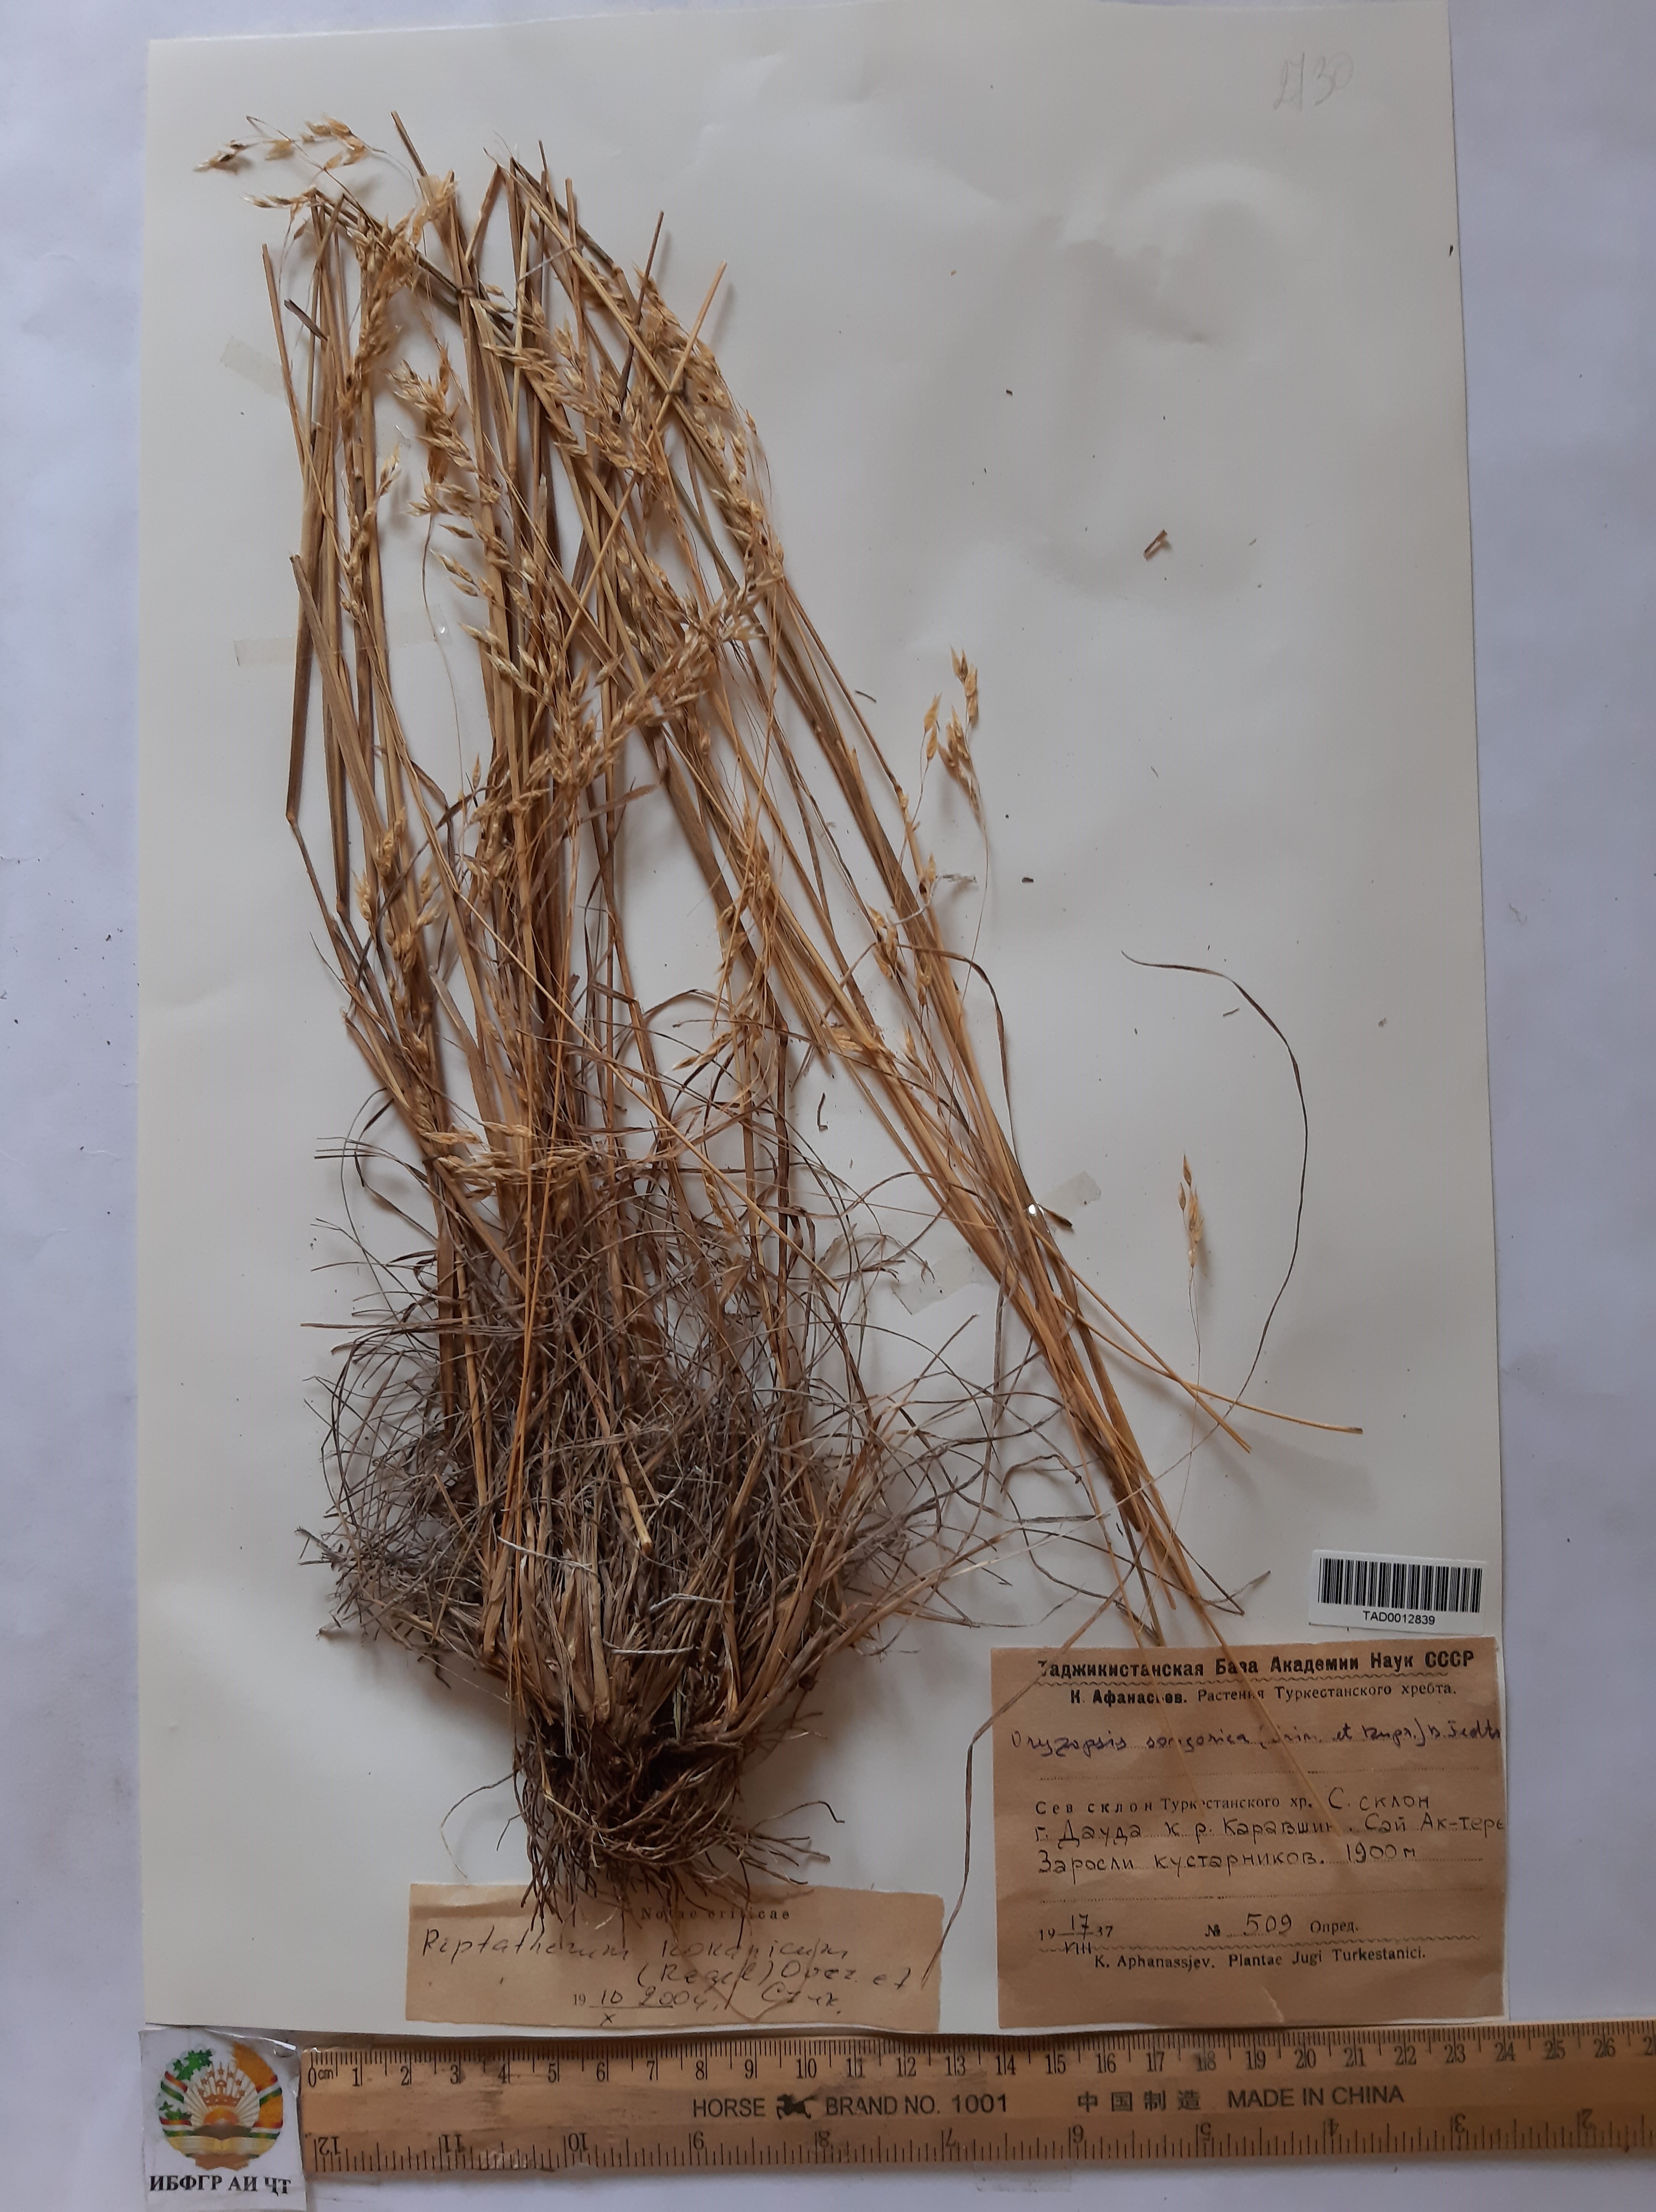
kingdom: Plantae
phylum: Tracheophyta
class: Liliopsida
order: Poales
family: Poaceae
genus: Piptatherum
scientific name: Piptatherum songaricum
